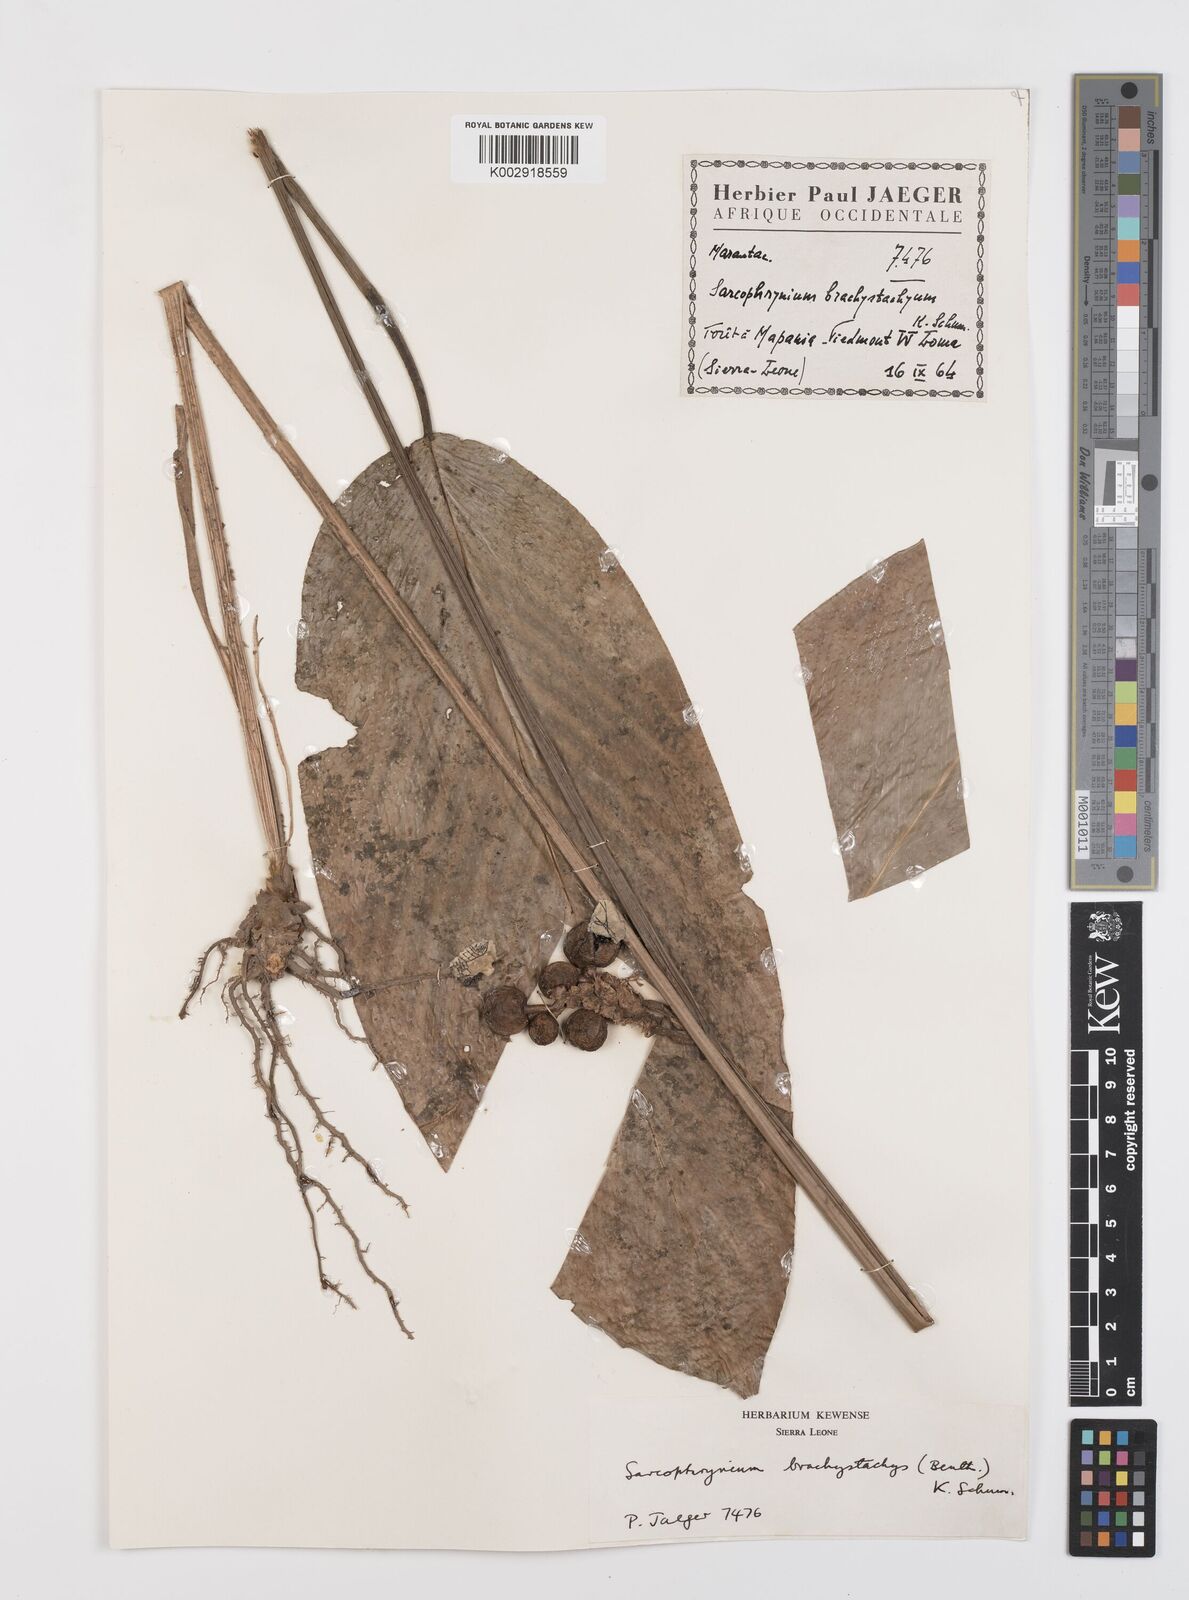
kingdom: Plantae
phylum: Tracheophyta
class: Liliopsida
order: Zingiberales
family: Marantaceae
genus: Sarcophrynium
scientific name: Sarcophrynium brachystachyum
